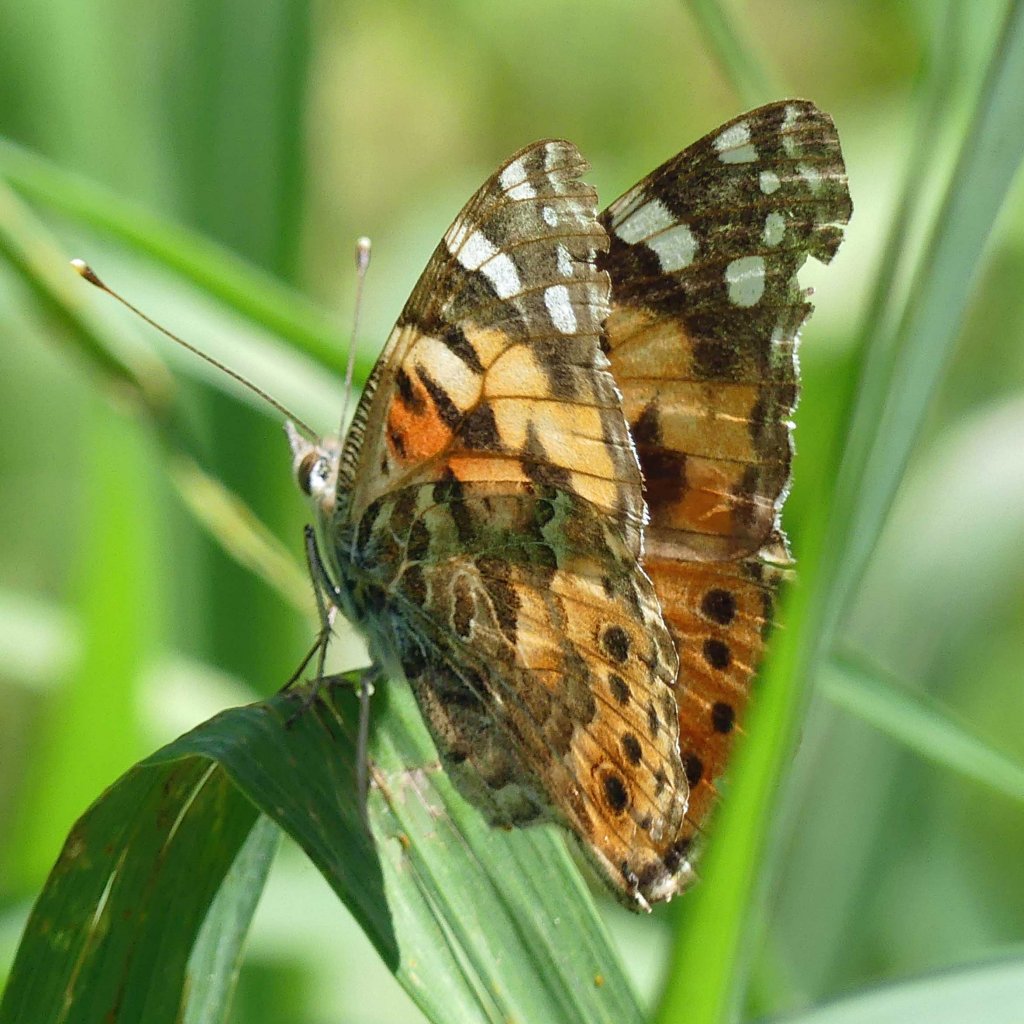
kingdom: Animalia
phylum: Arthropoda
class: Insecta
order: Lepidoptera
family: Nymphalidae
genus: Vanessa
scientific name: Vanessa cardui
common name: Painted Lady
